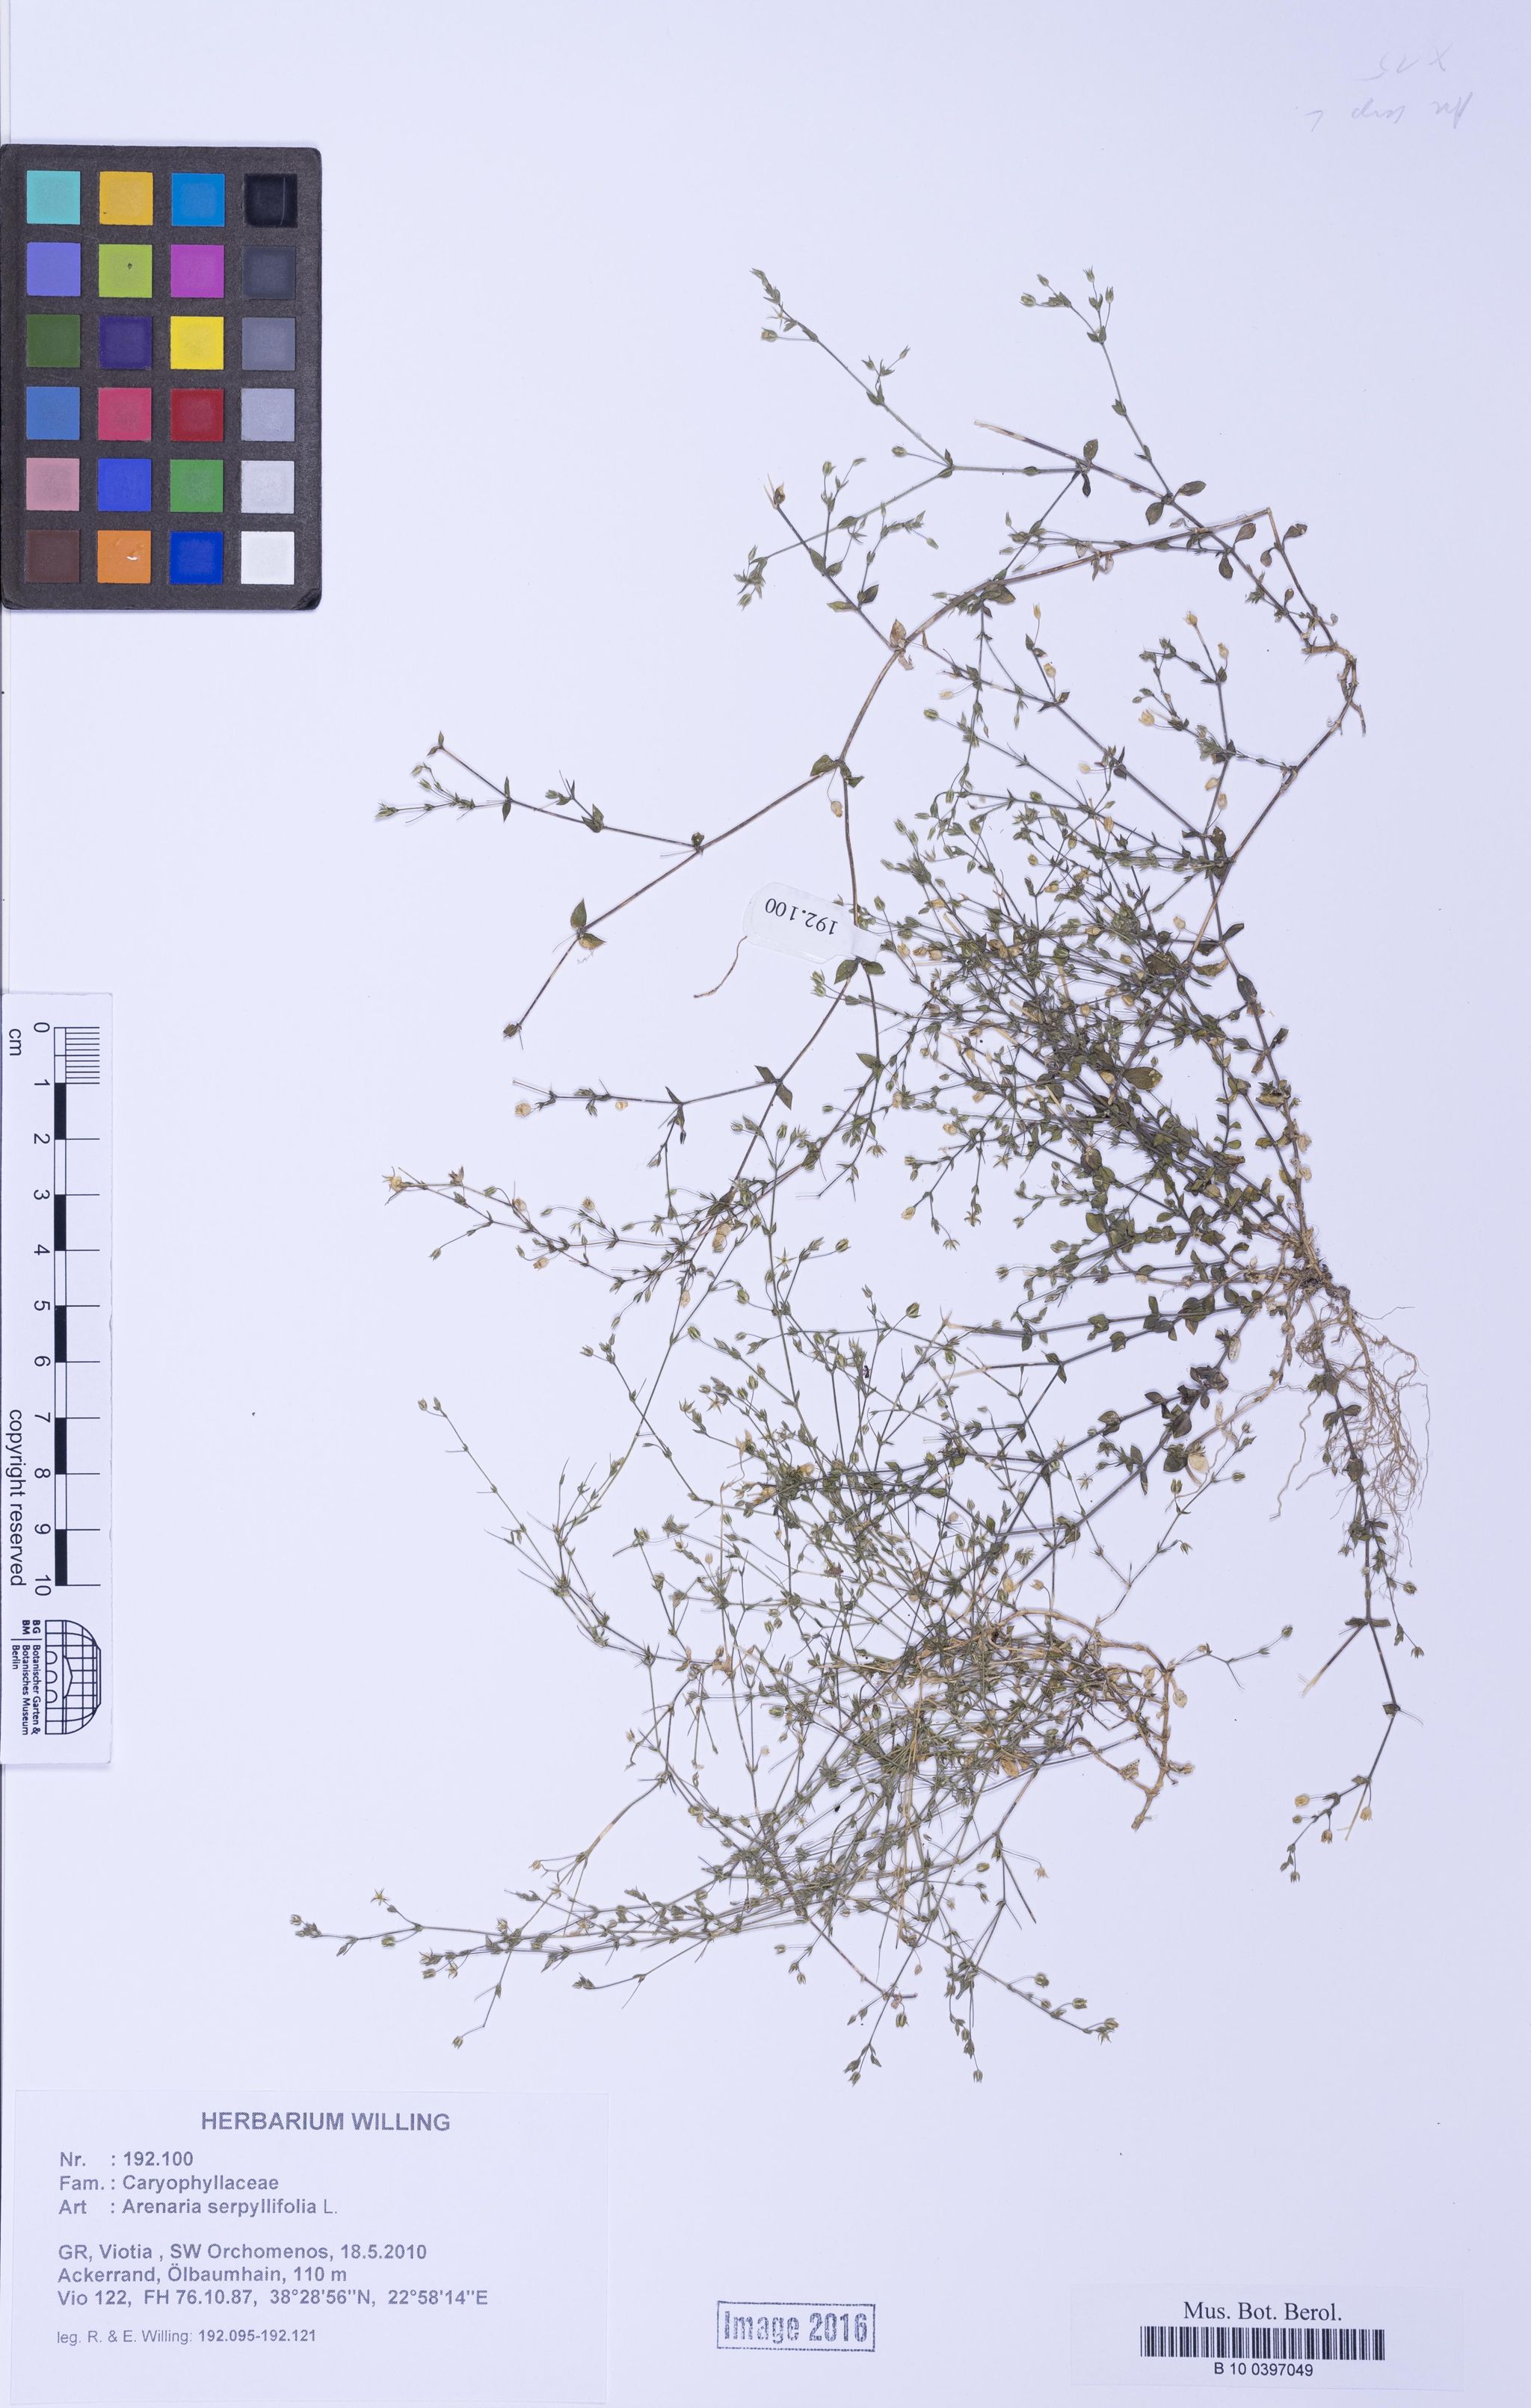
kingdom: Plantae
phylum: Tracheophyta
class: Magnoliopsida
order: Caryophyllales
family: Caryophyllaceae
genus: Arenaria
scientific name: Arenaria serpyllifolia
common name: Thyme-leaved sandwort
